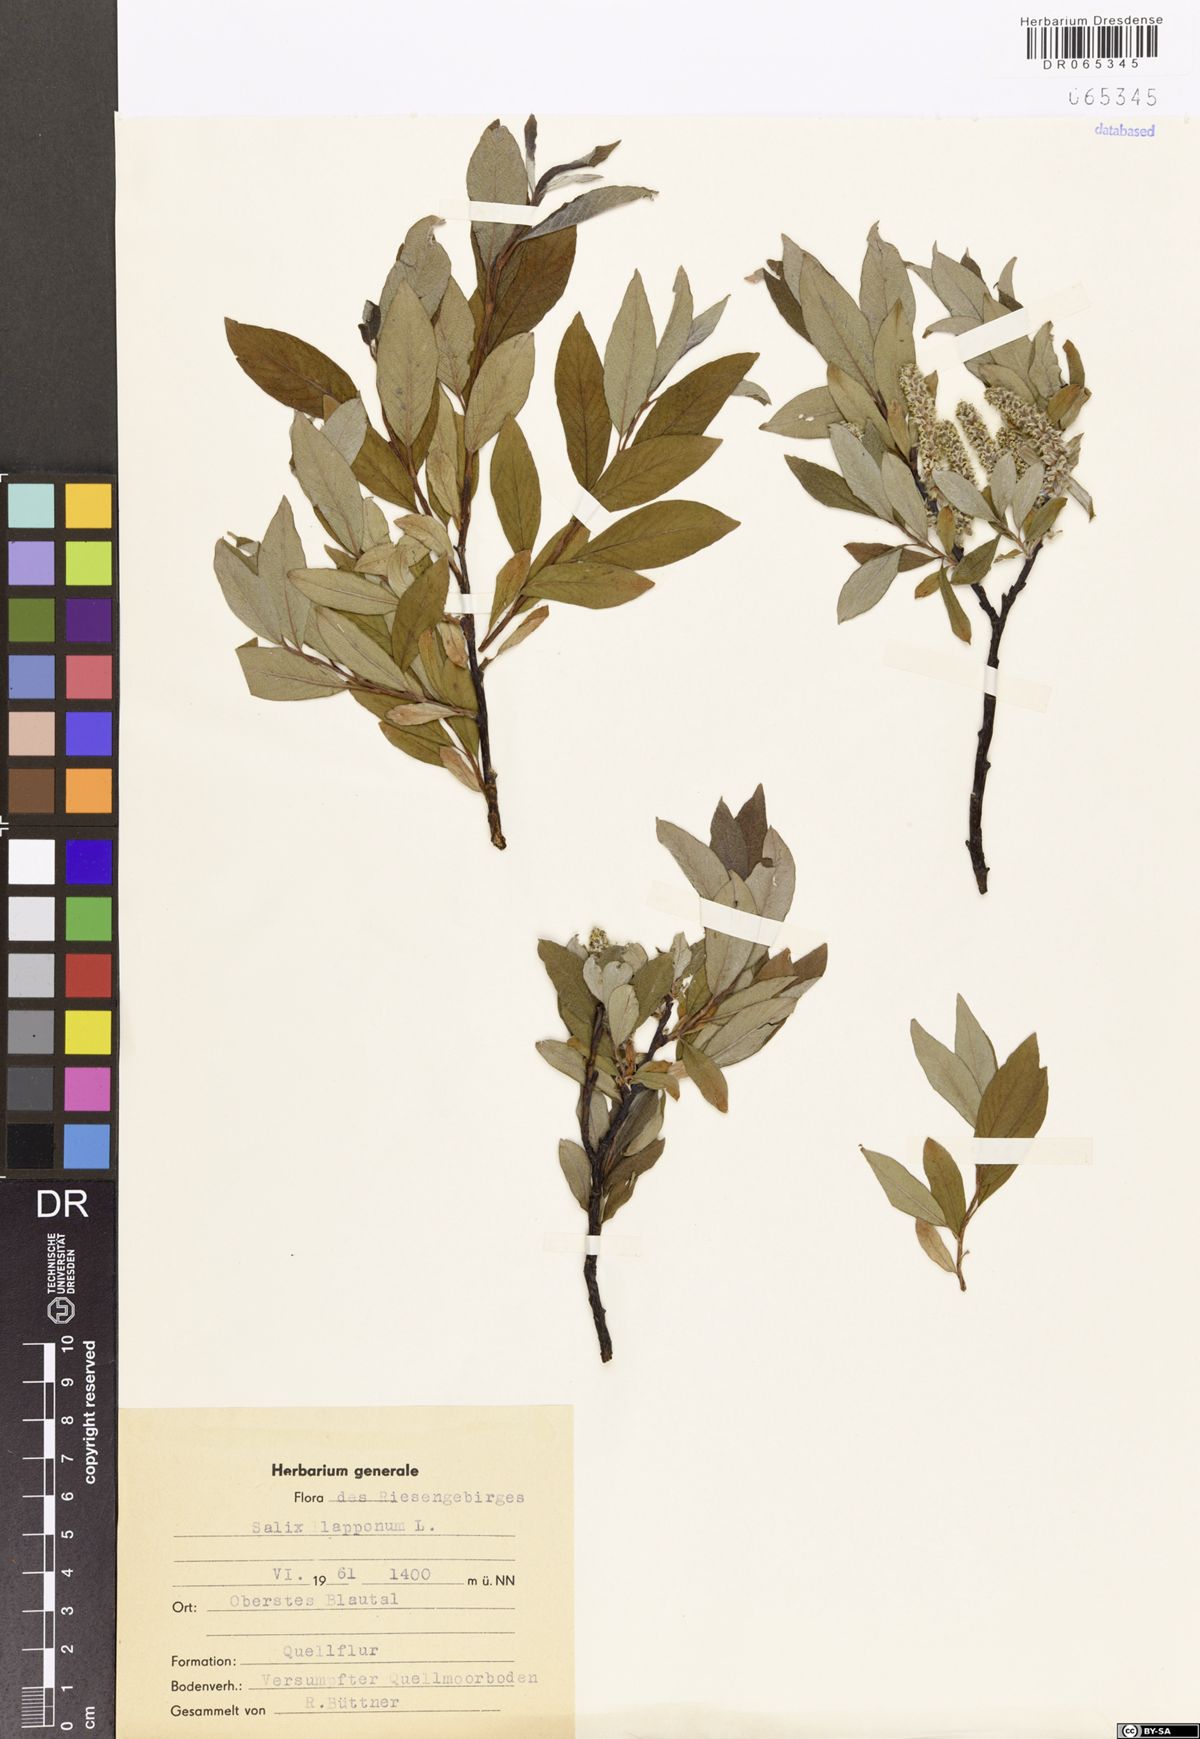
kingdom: Plantae
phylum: Tracheophyta
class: Magnoliopsida
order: Malpighiales
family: Salicaceae
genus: Salix
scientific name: Salix lapponum
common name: Downy willow
